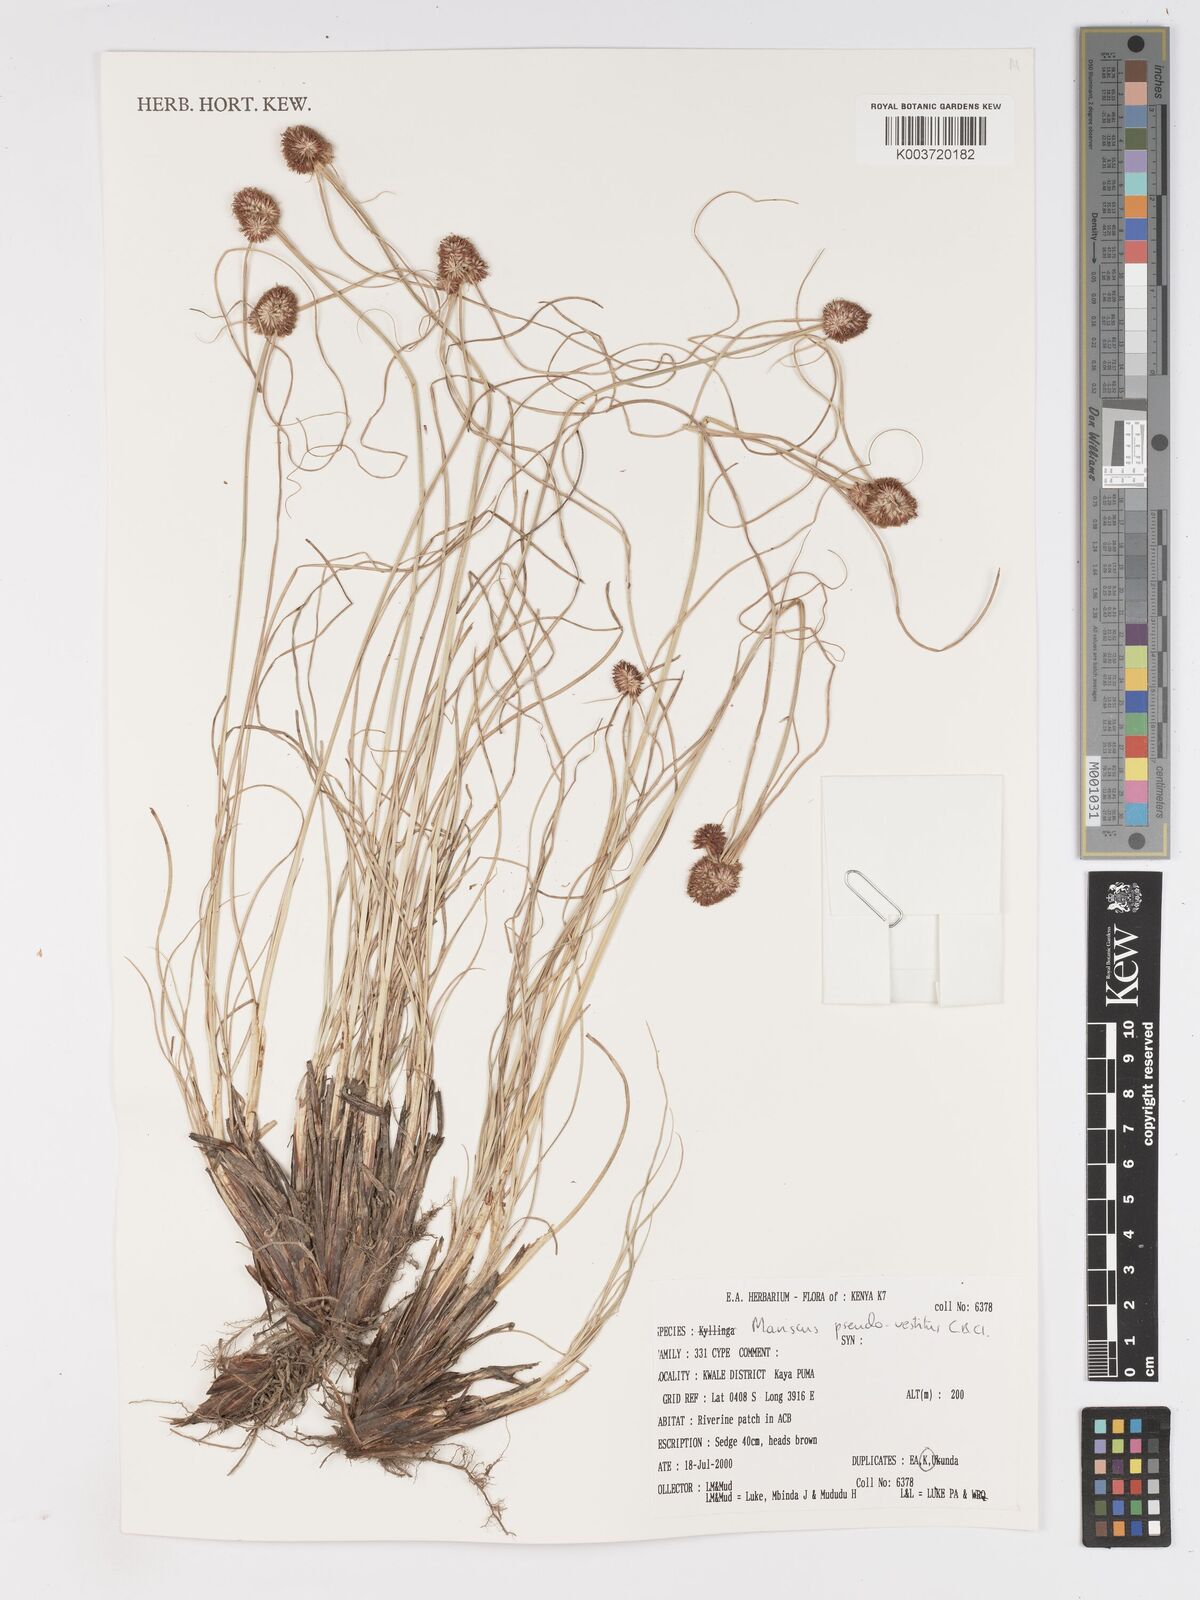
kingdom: Plantae
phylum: Tracheophyta
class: Liliopsida
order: Poales
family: Cyperaceae
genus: Cyperus
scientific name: Cyperus pseudovestitus
